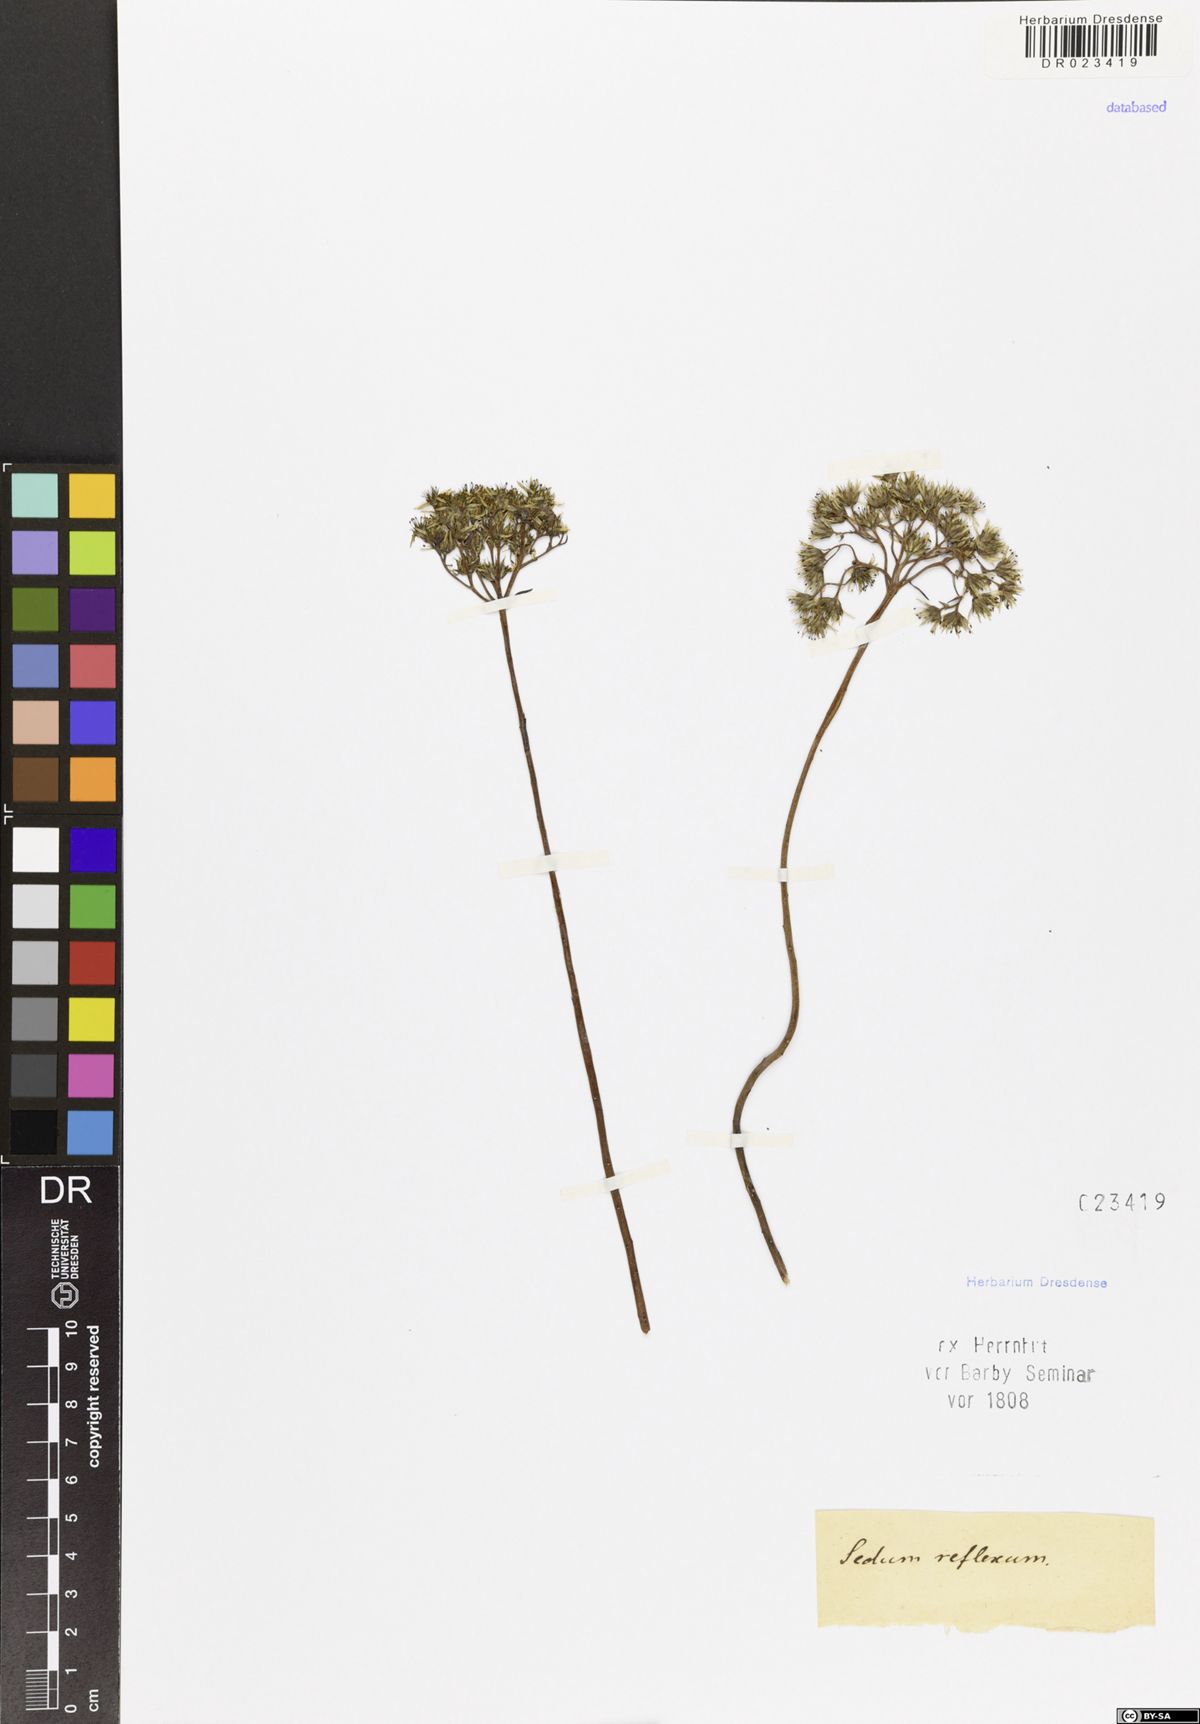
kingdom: Plantae
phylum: Tracheophyta
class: Magnoliopsida
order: Saxifragales
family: Crassulaceae
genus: Petrosedum
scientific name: Petrosedum rupestre
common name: Jenny's stonecrop
